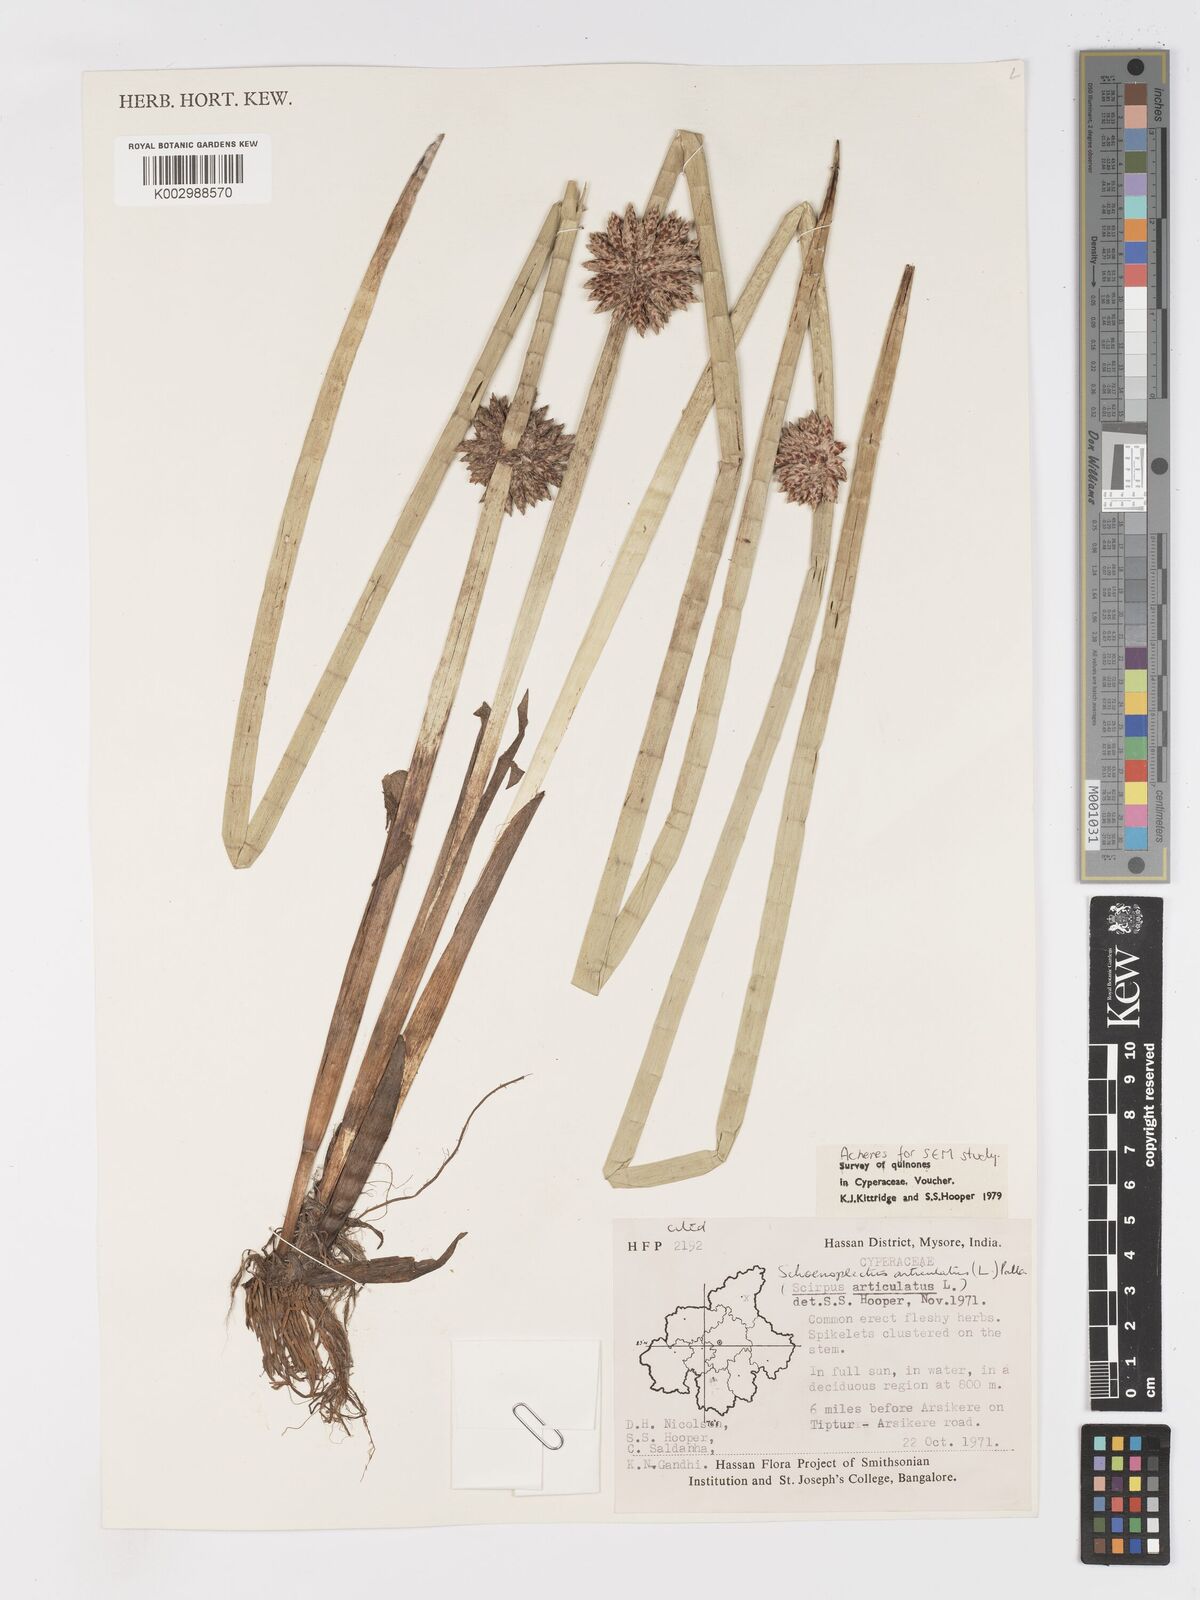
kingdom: Plantae
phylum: Tracheophyta
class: Liliopsida
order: Poales
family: Cyperaceae
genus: Schoenoplectiella
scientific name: Schoenoplectiella articulata
